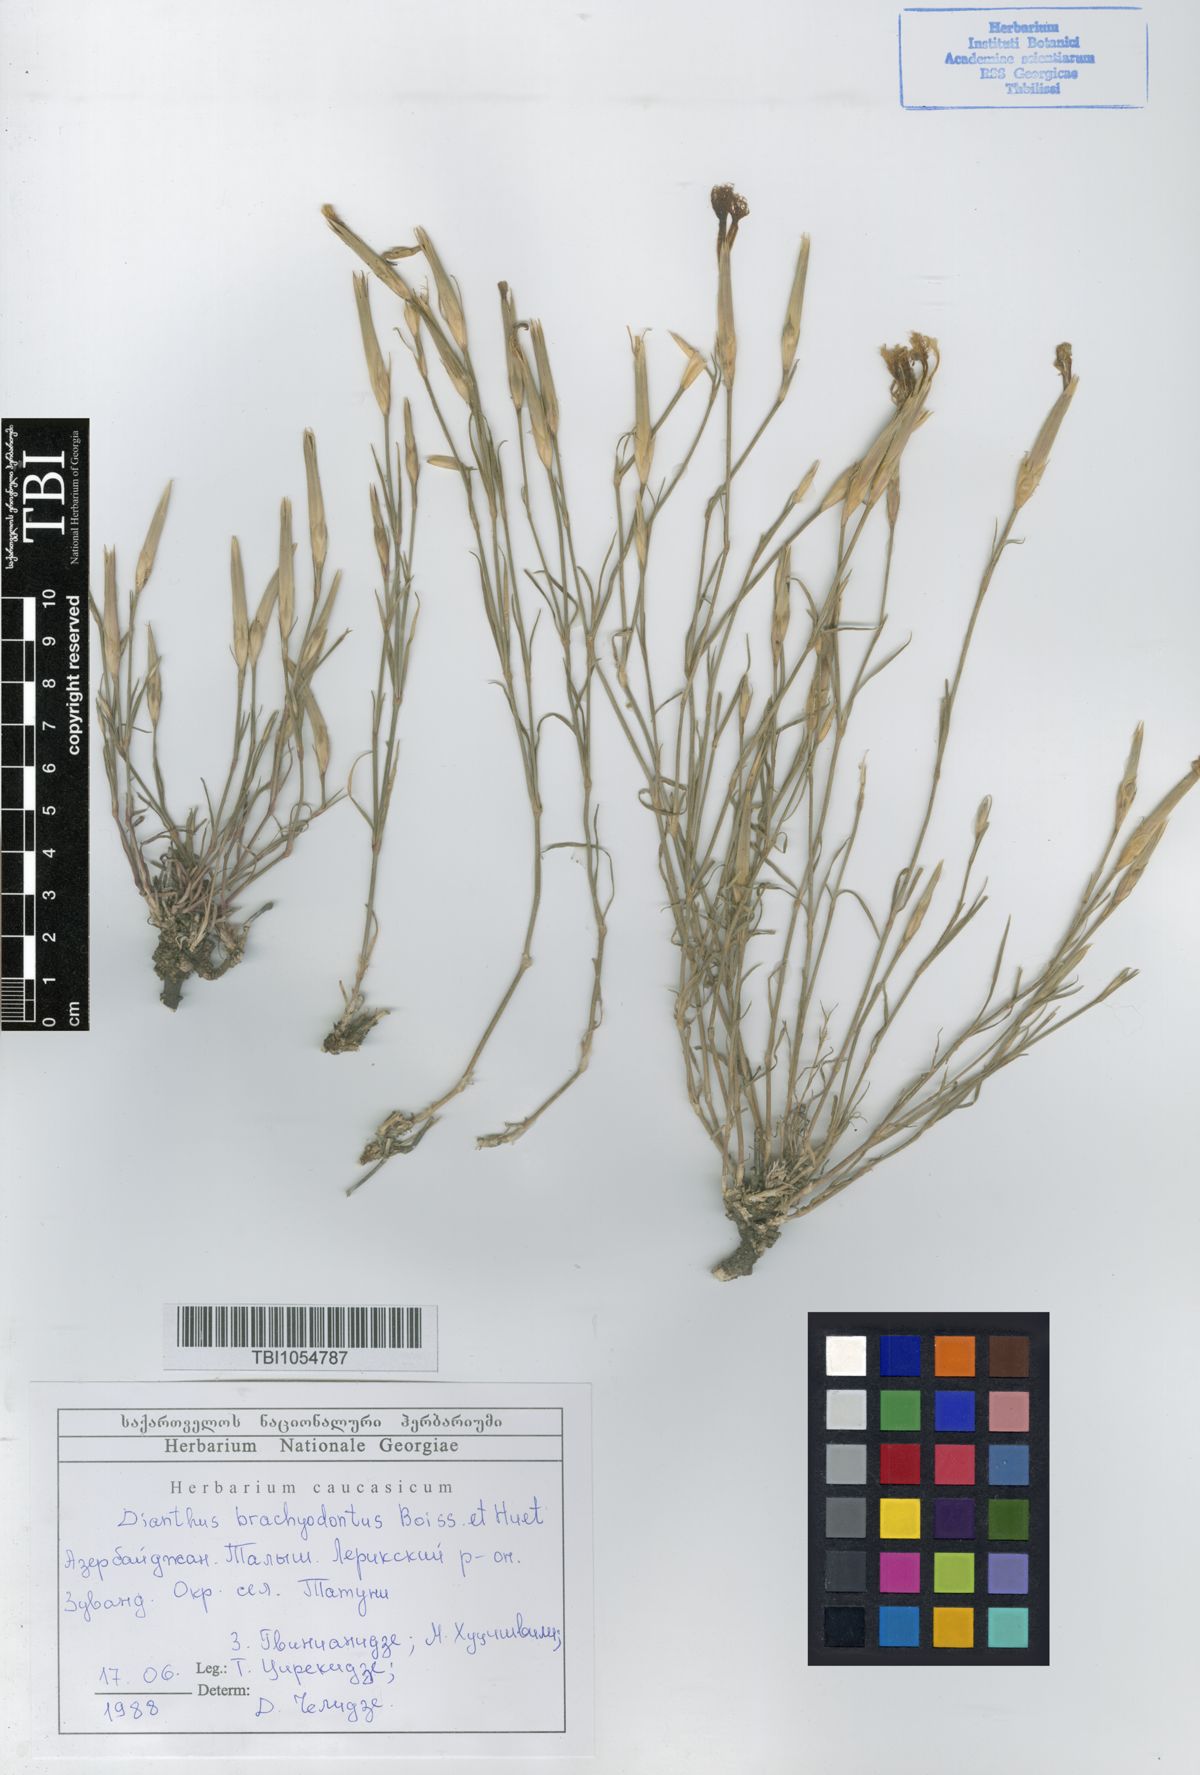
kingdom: Plantae
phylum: Tracheophyta
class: Magnoliopsida
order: Caryophyllales
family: Caryophyllaceae
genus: Dianthus
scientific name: Dianthus
